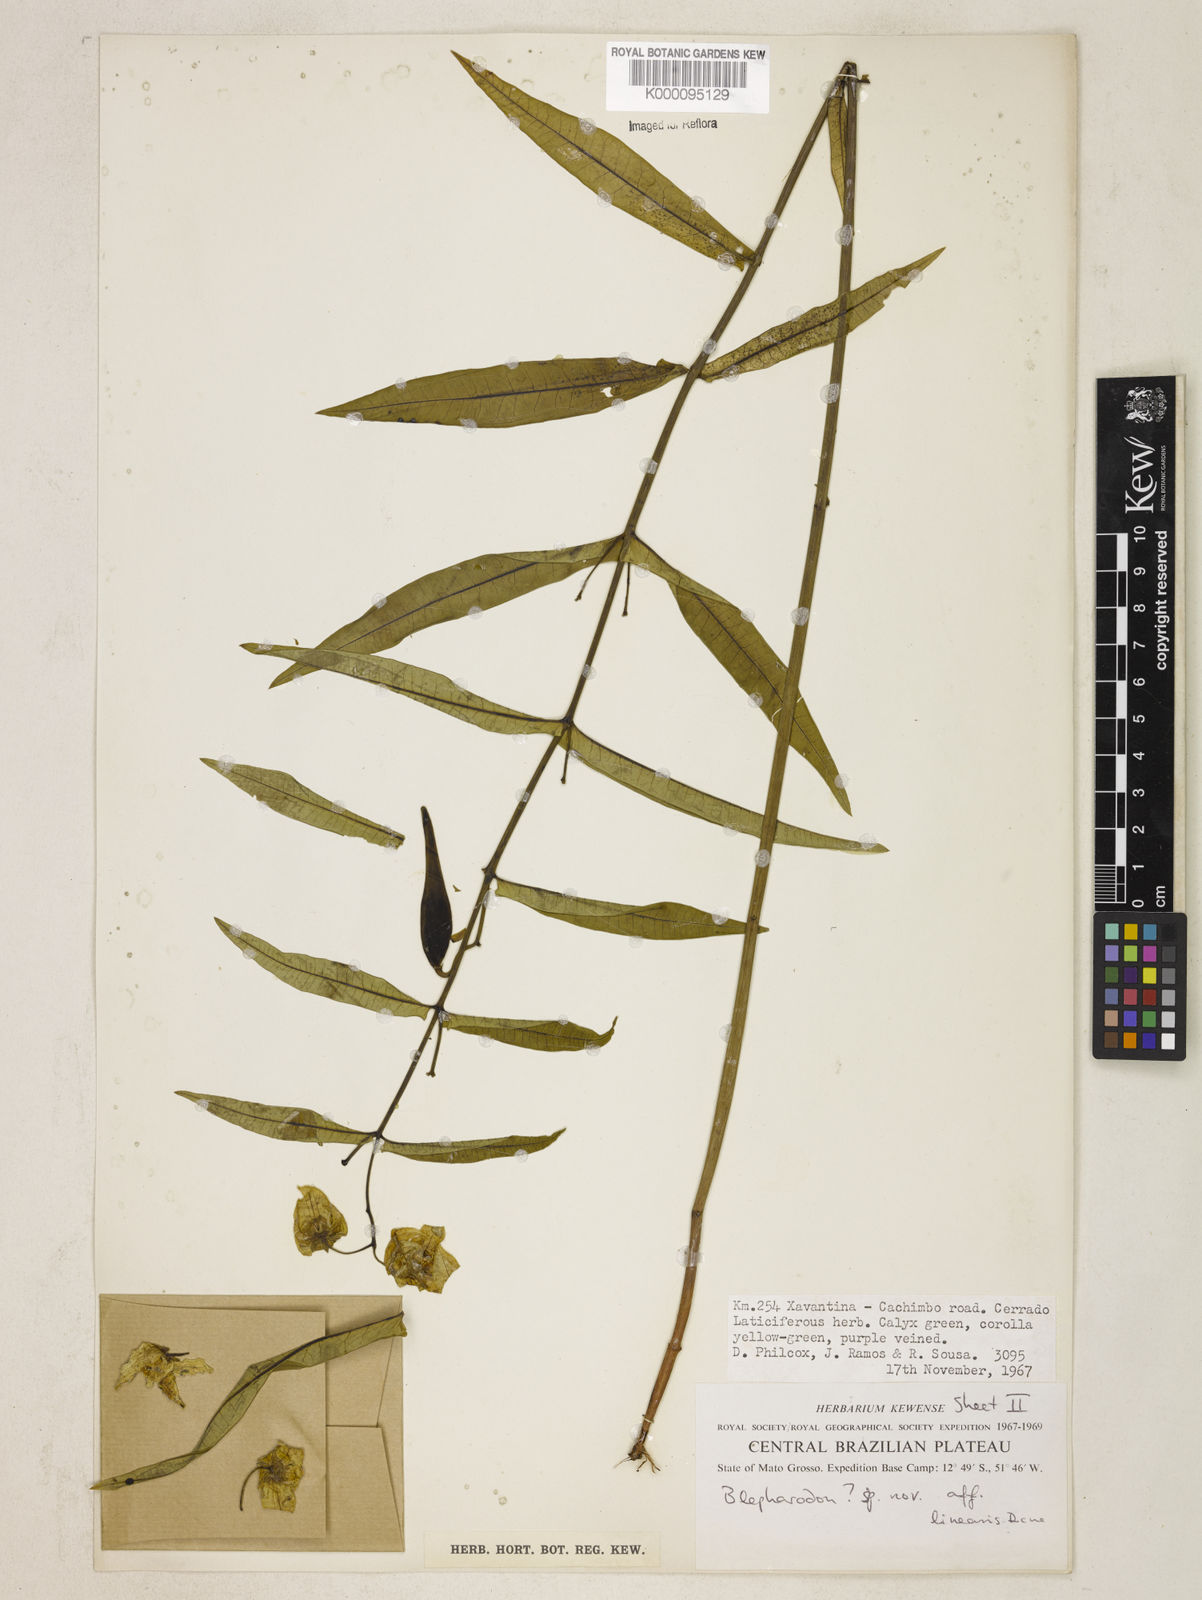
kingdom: Plantae
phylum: Tracheophyta
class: Magnoliopsida
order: Gentianales
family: Apocynaceae
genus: Blepharodon
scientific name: Blepharodon lineare
